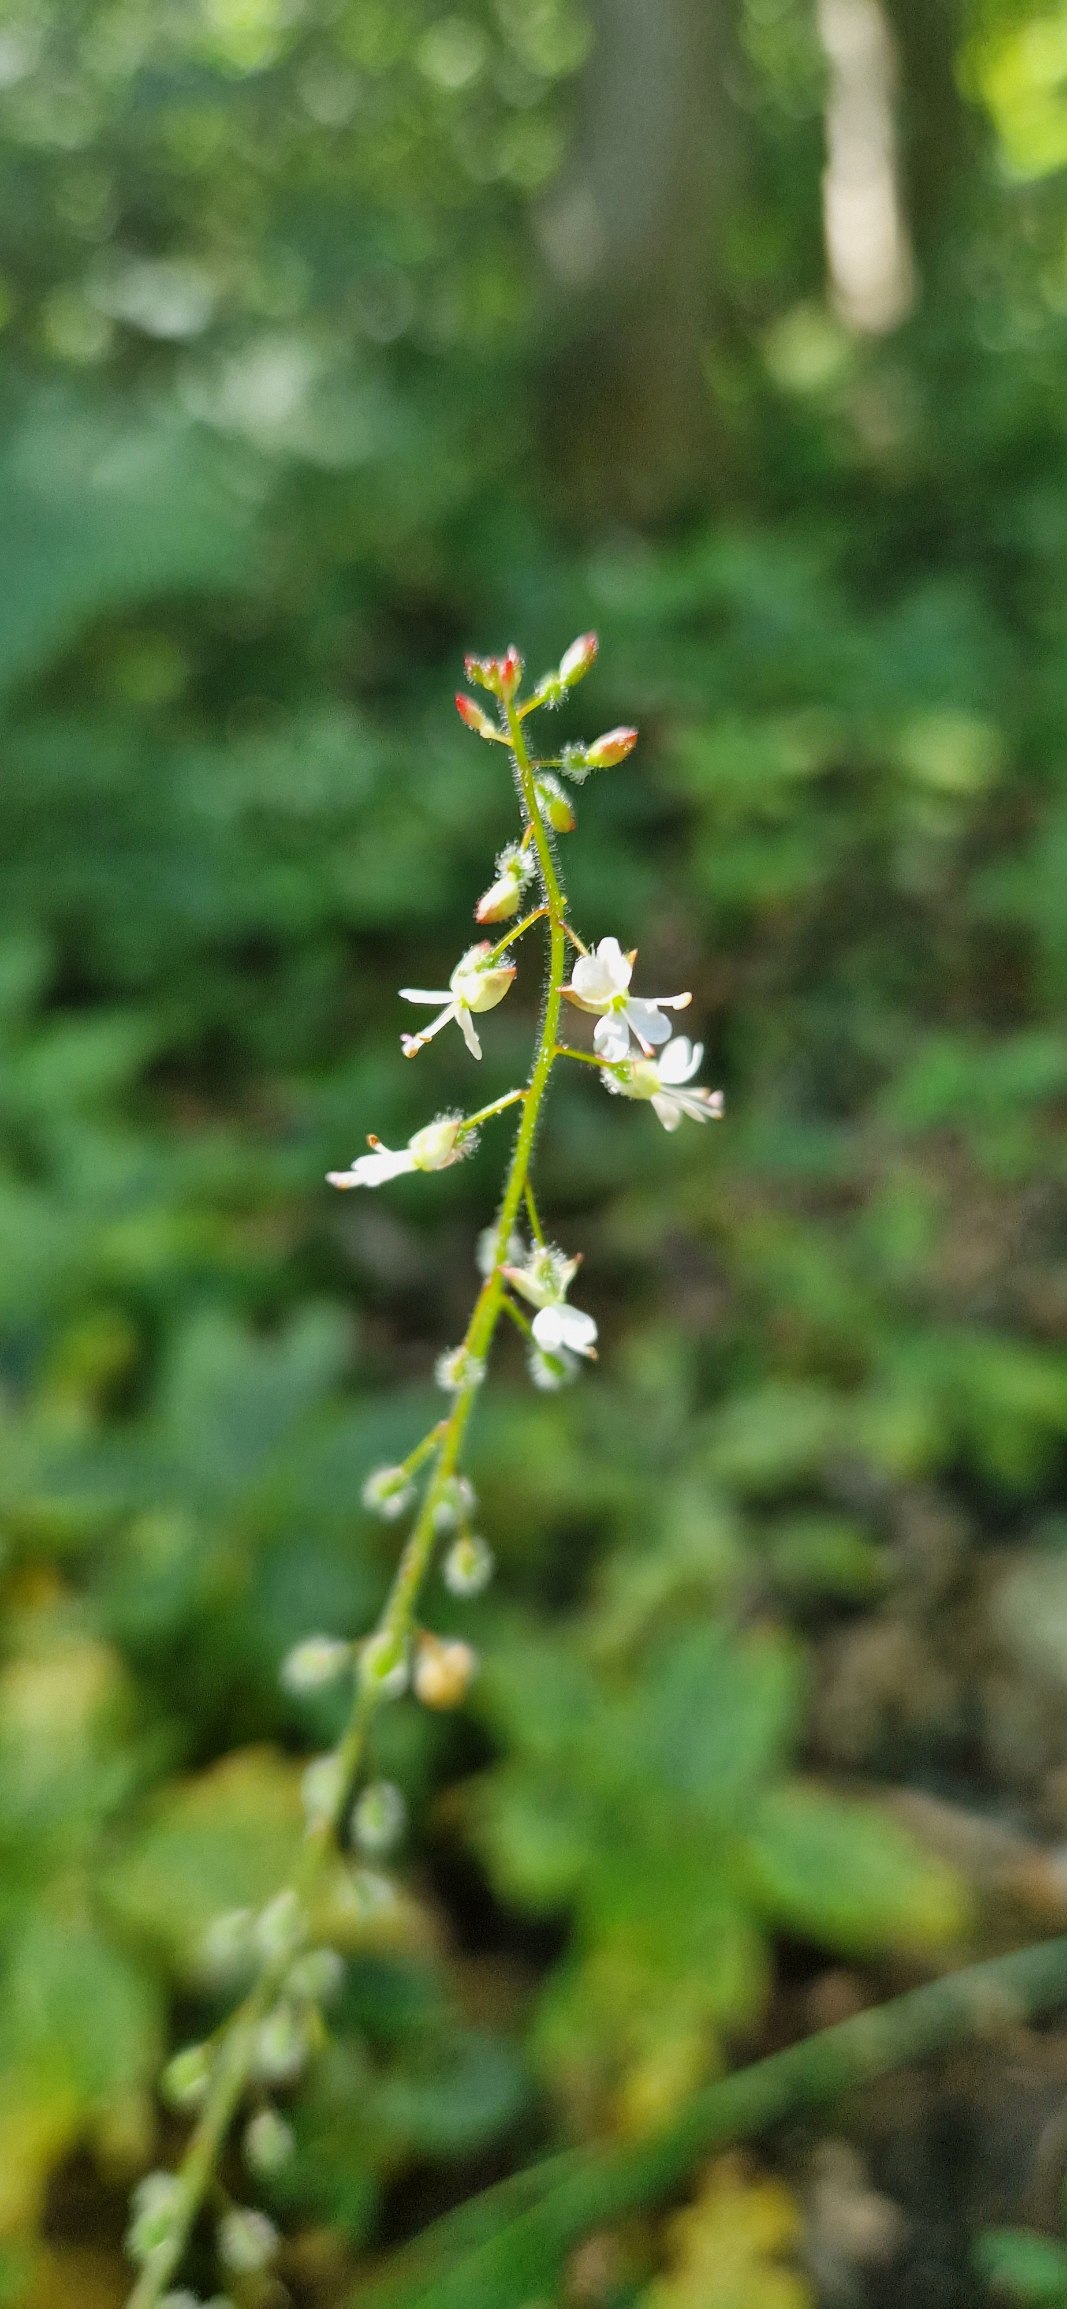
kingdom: Plantae
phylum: Tracheophyta
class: Magnoliopsida
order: Myrtales
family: Onagraceae
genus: Circaea
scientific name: Circaea lutetiana
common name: Dunet steffensurt
